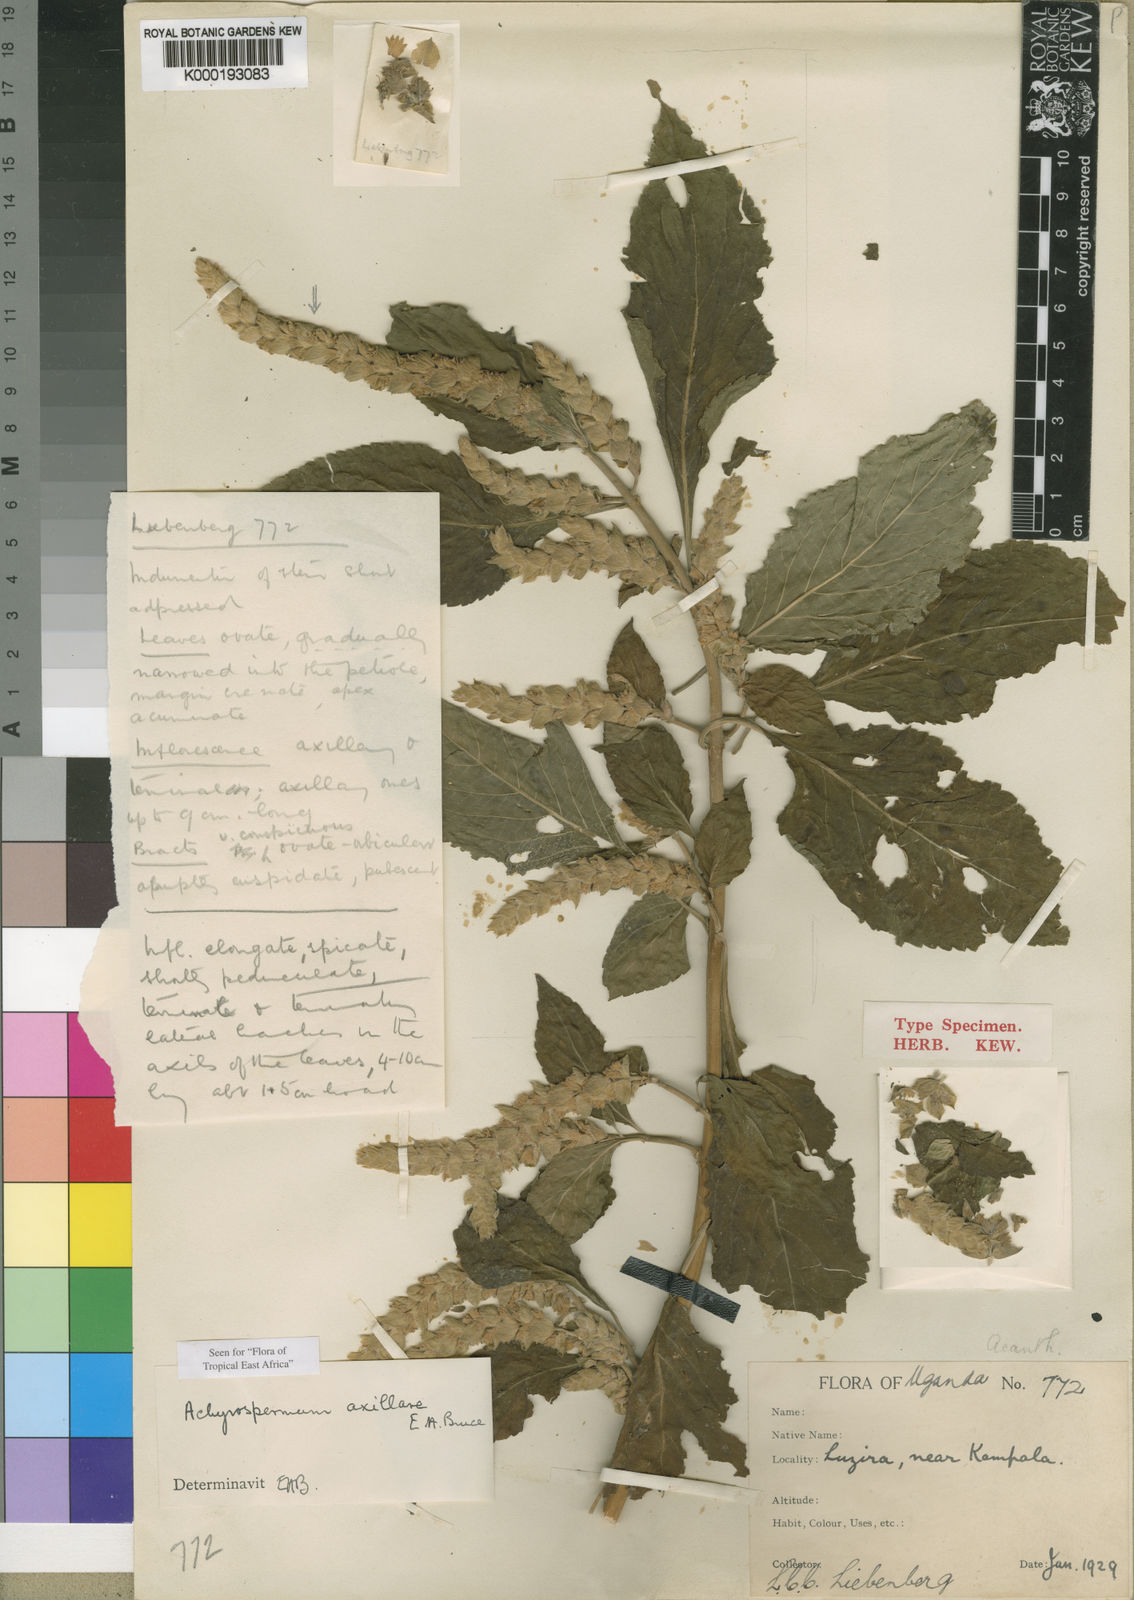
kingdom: Plantae
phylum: Tracheophyta
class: Magnoliopsida
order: Lamiales
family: Lamiaceae
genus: Achyrospermum
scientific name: Achyrospermum axillare
